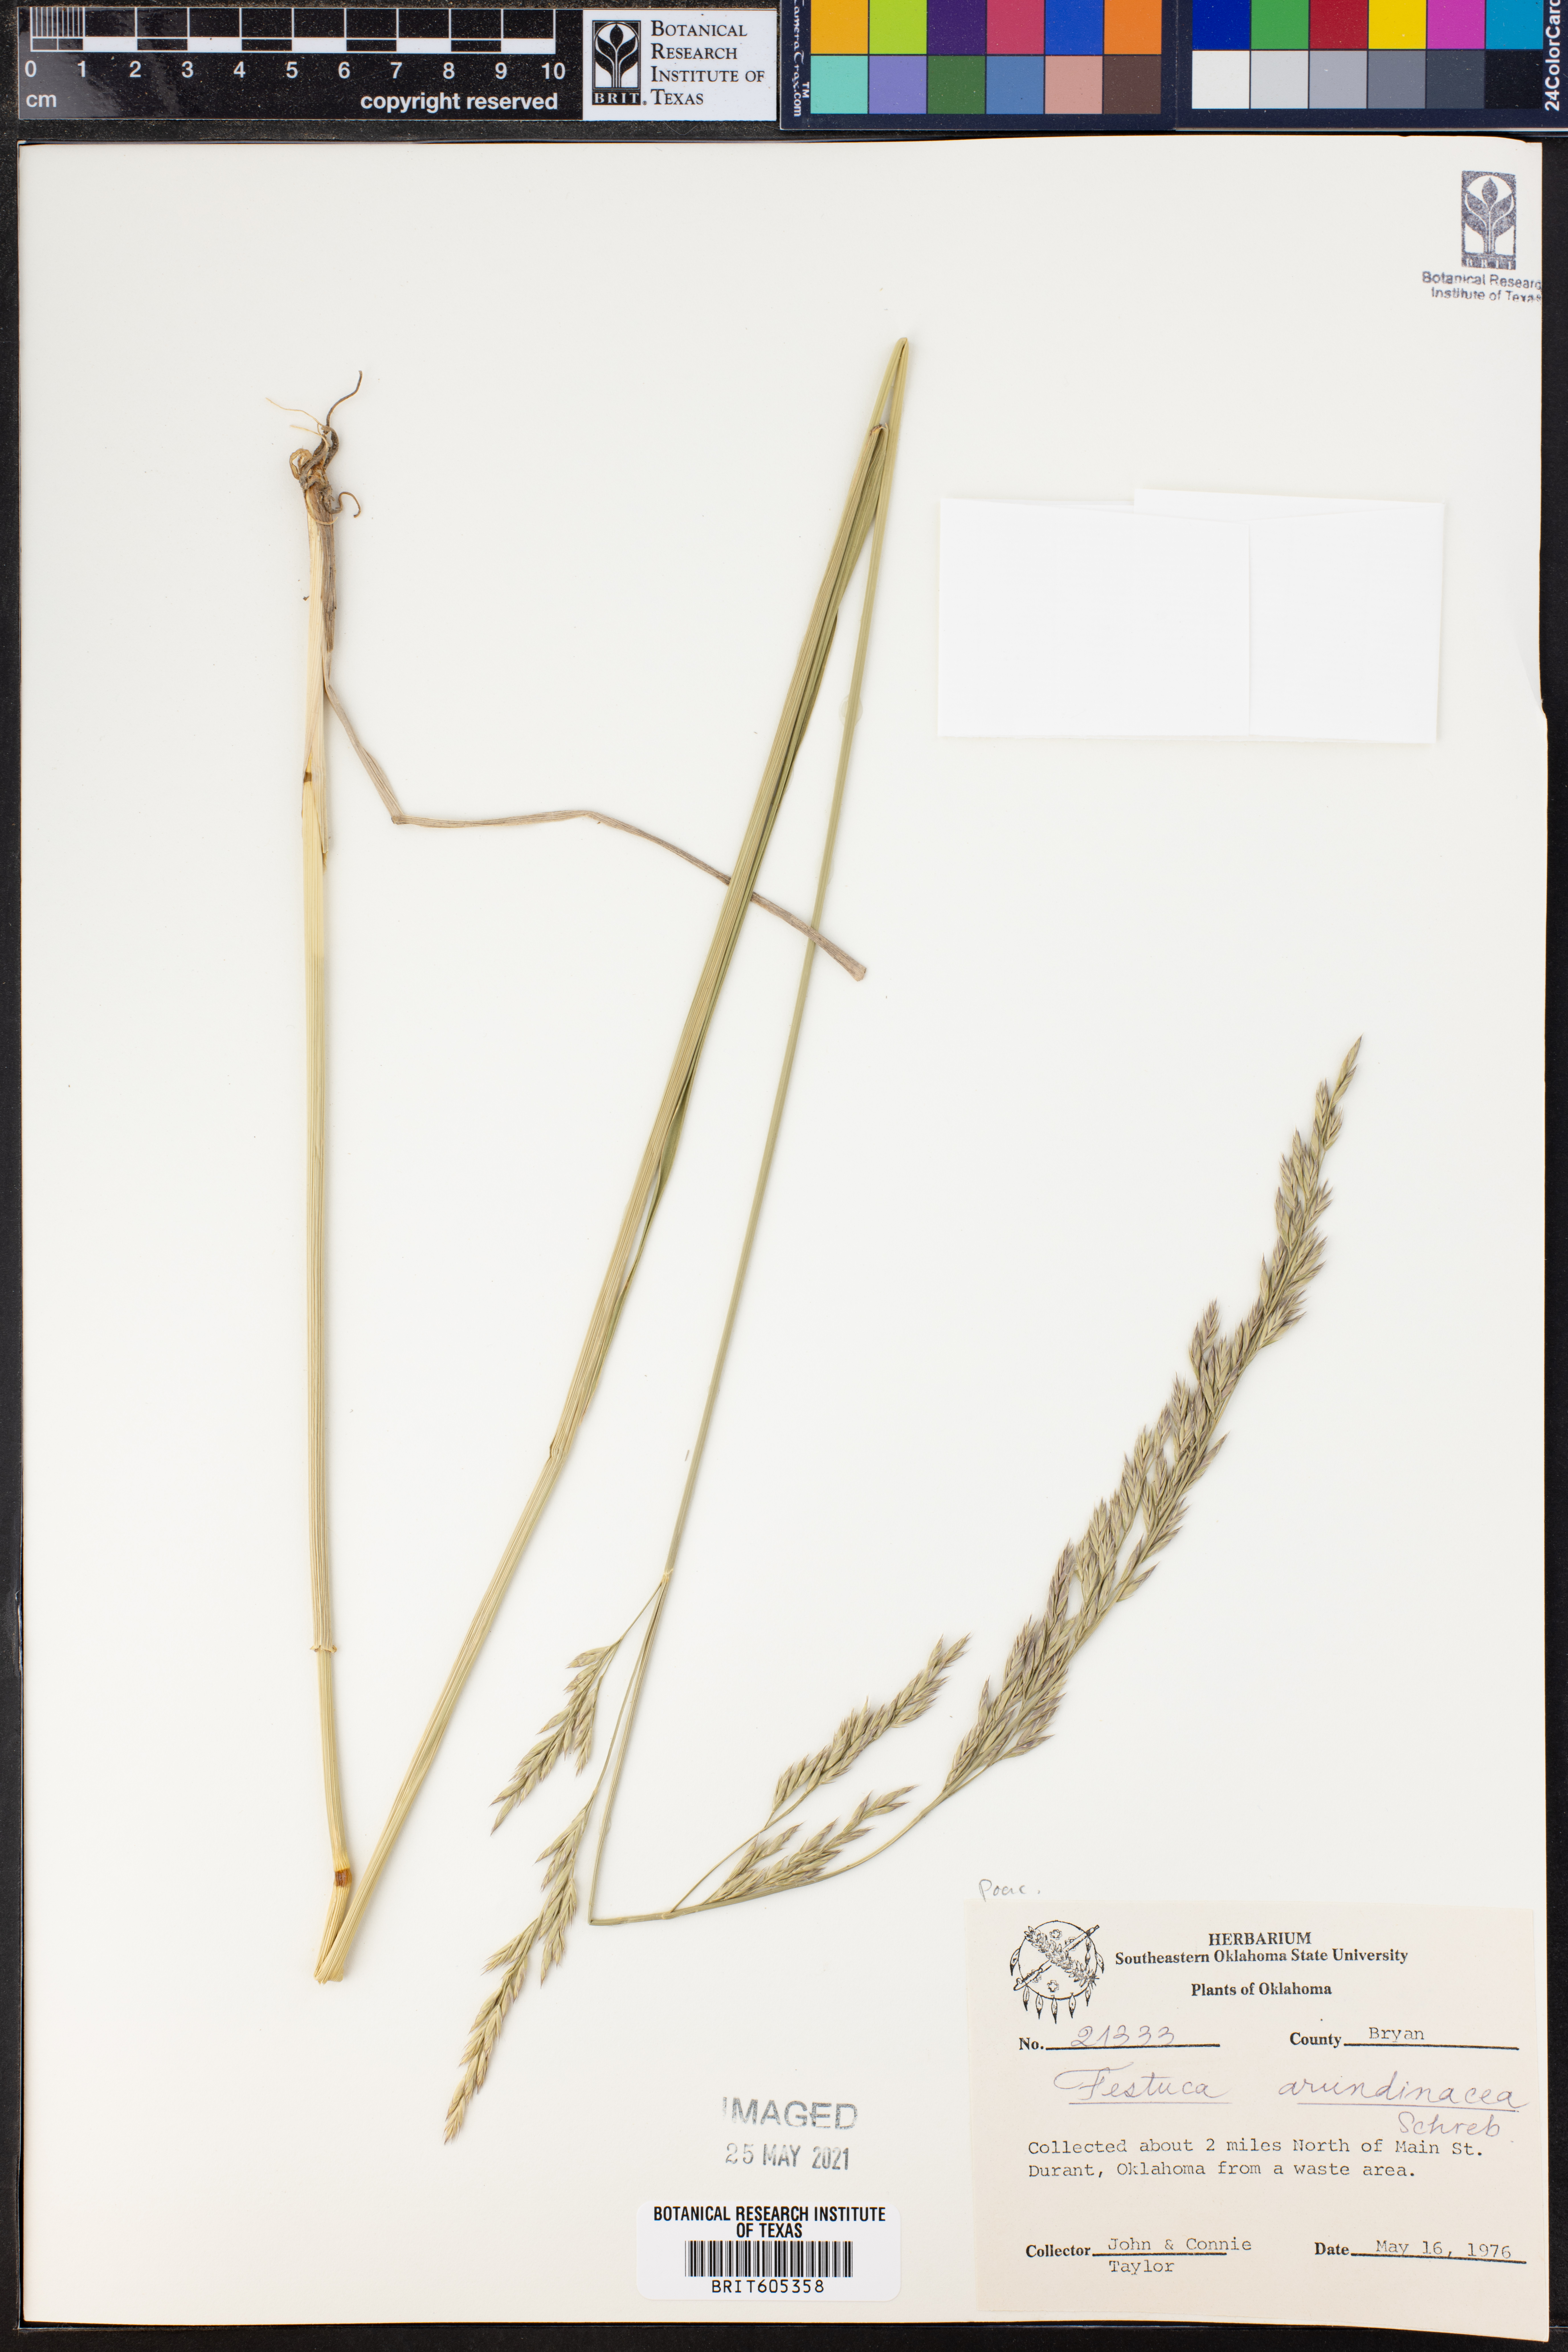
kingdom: Plantae
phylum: Tracheophyta
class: Liliopsida
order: Poales
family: Poaceae
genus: Lolium
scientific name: Lolium arundinaceum
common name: Reed fescue
